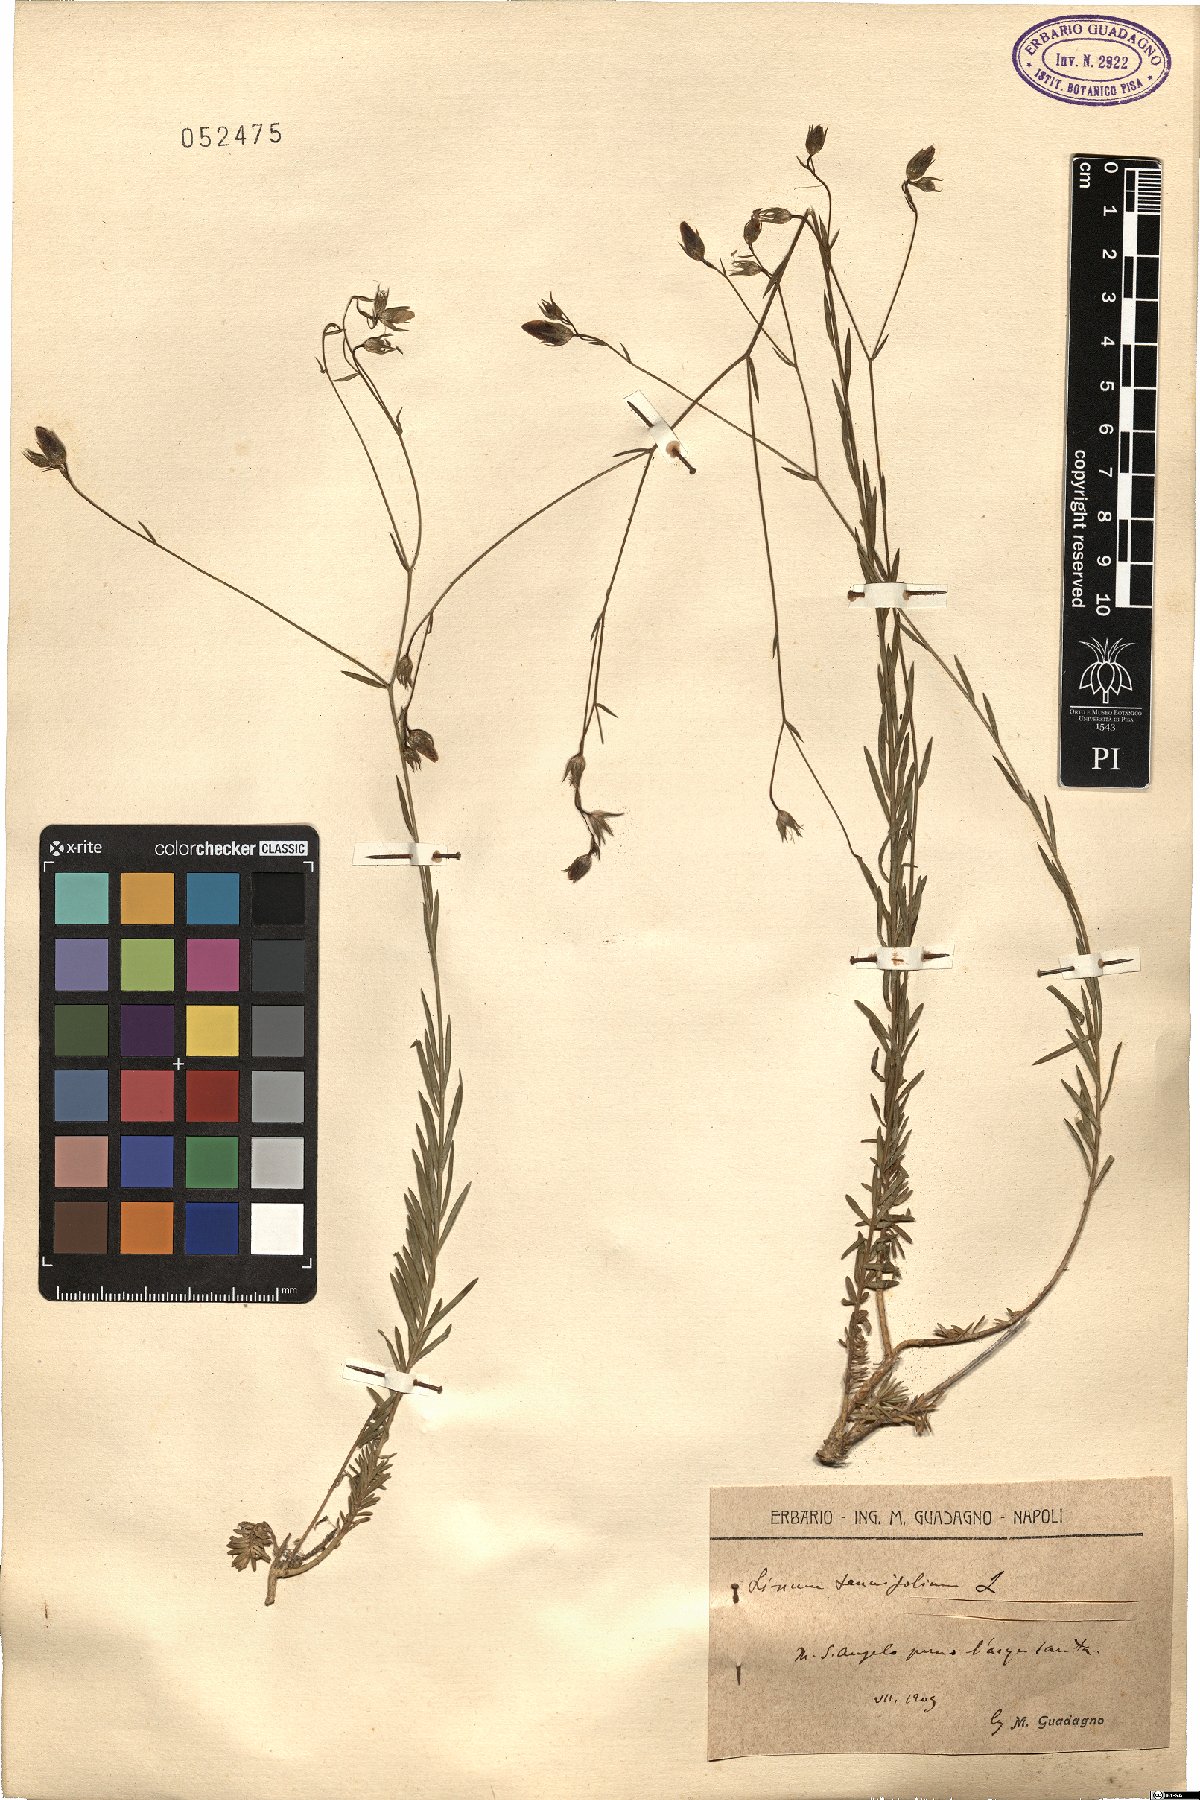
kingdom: Plantae
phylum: Tracheophyta
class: Magnoliopsida
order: Malpighiales
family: Linaceae
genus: Linum
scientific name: Linum tenuifolium
